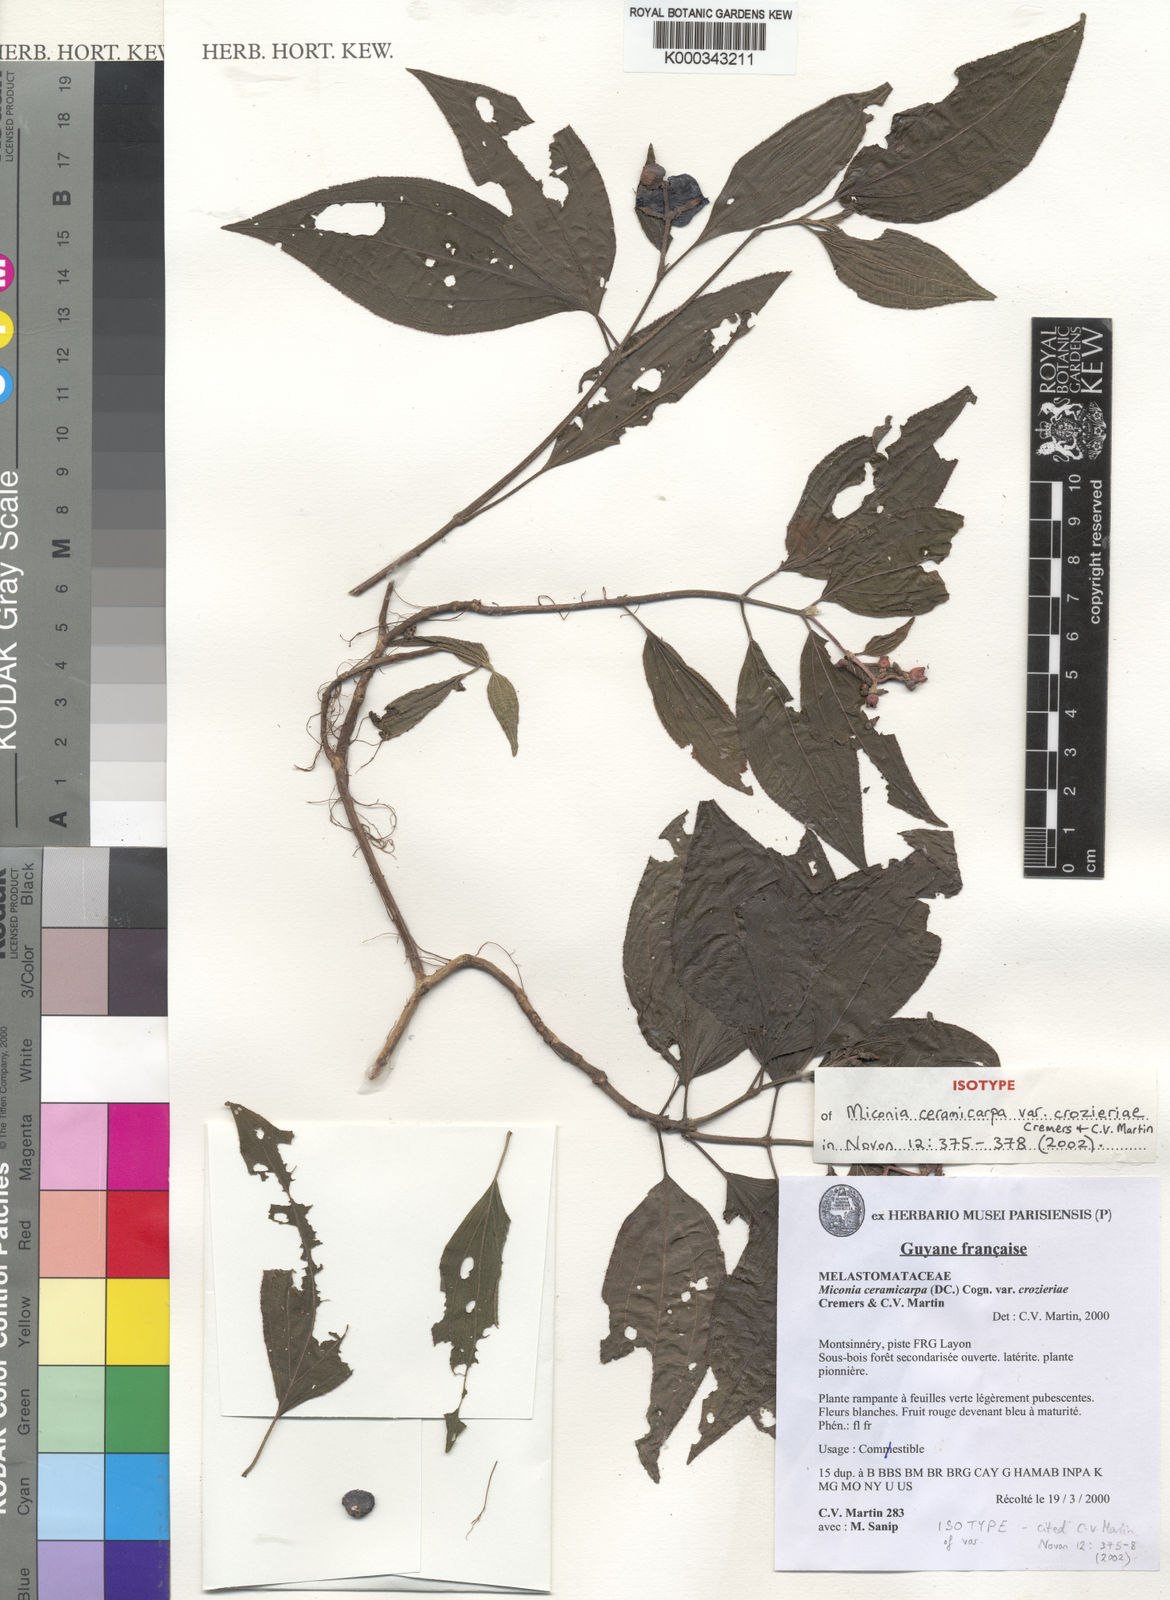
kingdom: Plantae
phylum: Tracheophyta
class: Magnoliopsida
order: Myrtales
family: Melastomataceae
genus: Miconia
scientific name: Miconia ceramicarpa
